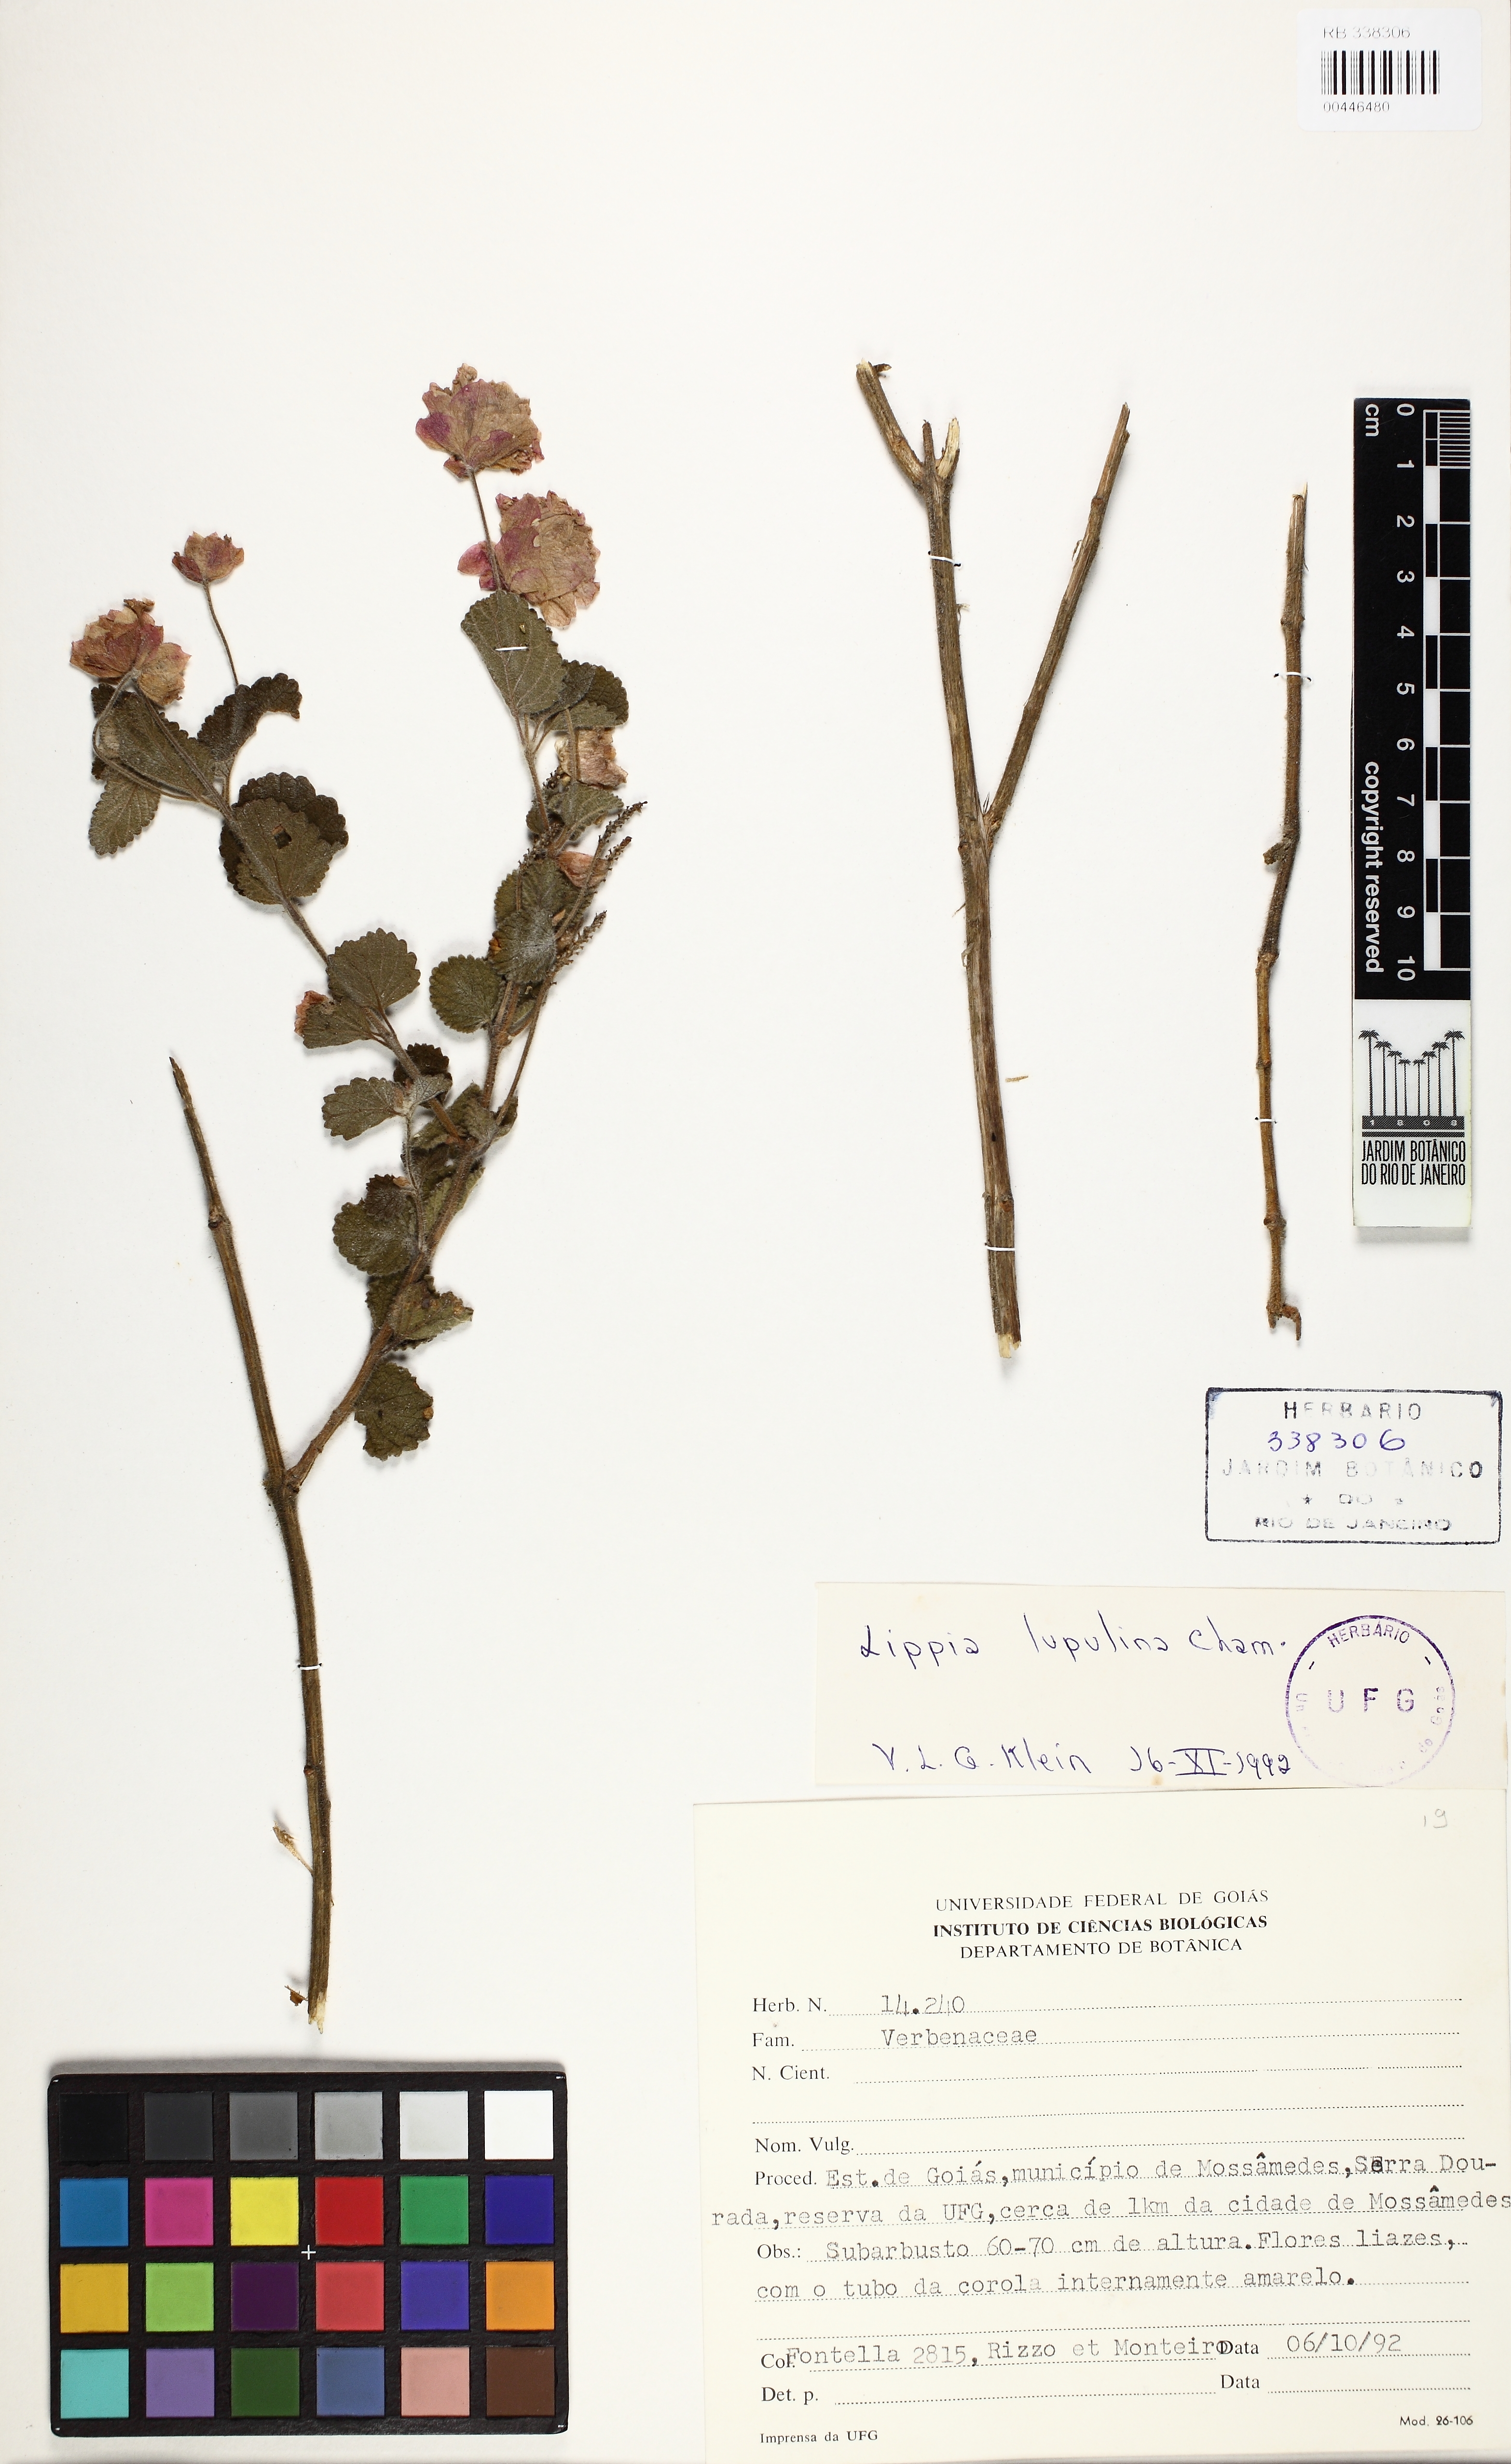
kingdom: Plantae
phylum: Tracheophyta
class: Magnoliopsida
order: Lamiales
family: Verbenaceae
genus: Lippia
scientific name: Lippia lupulina
